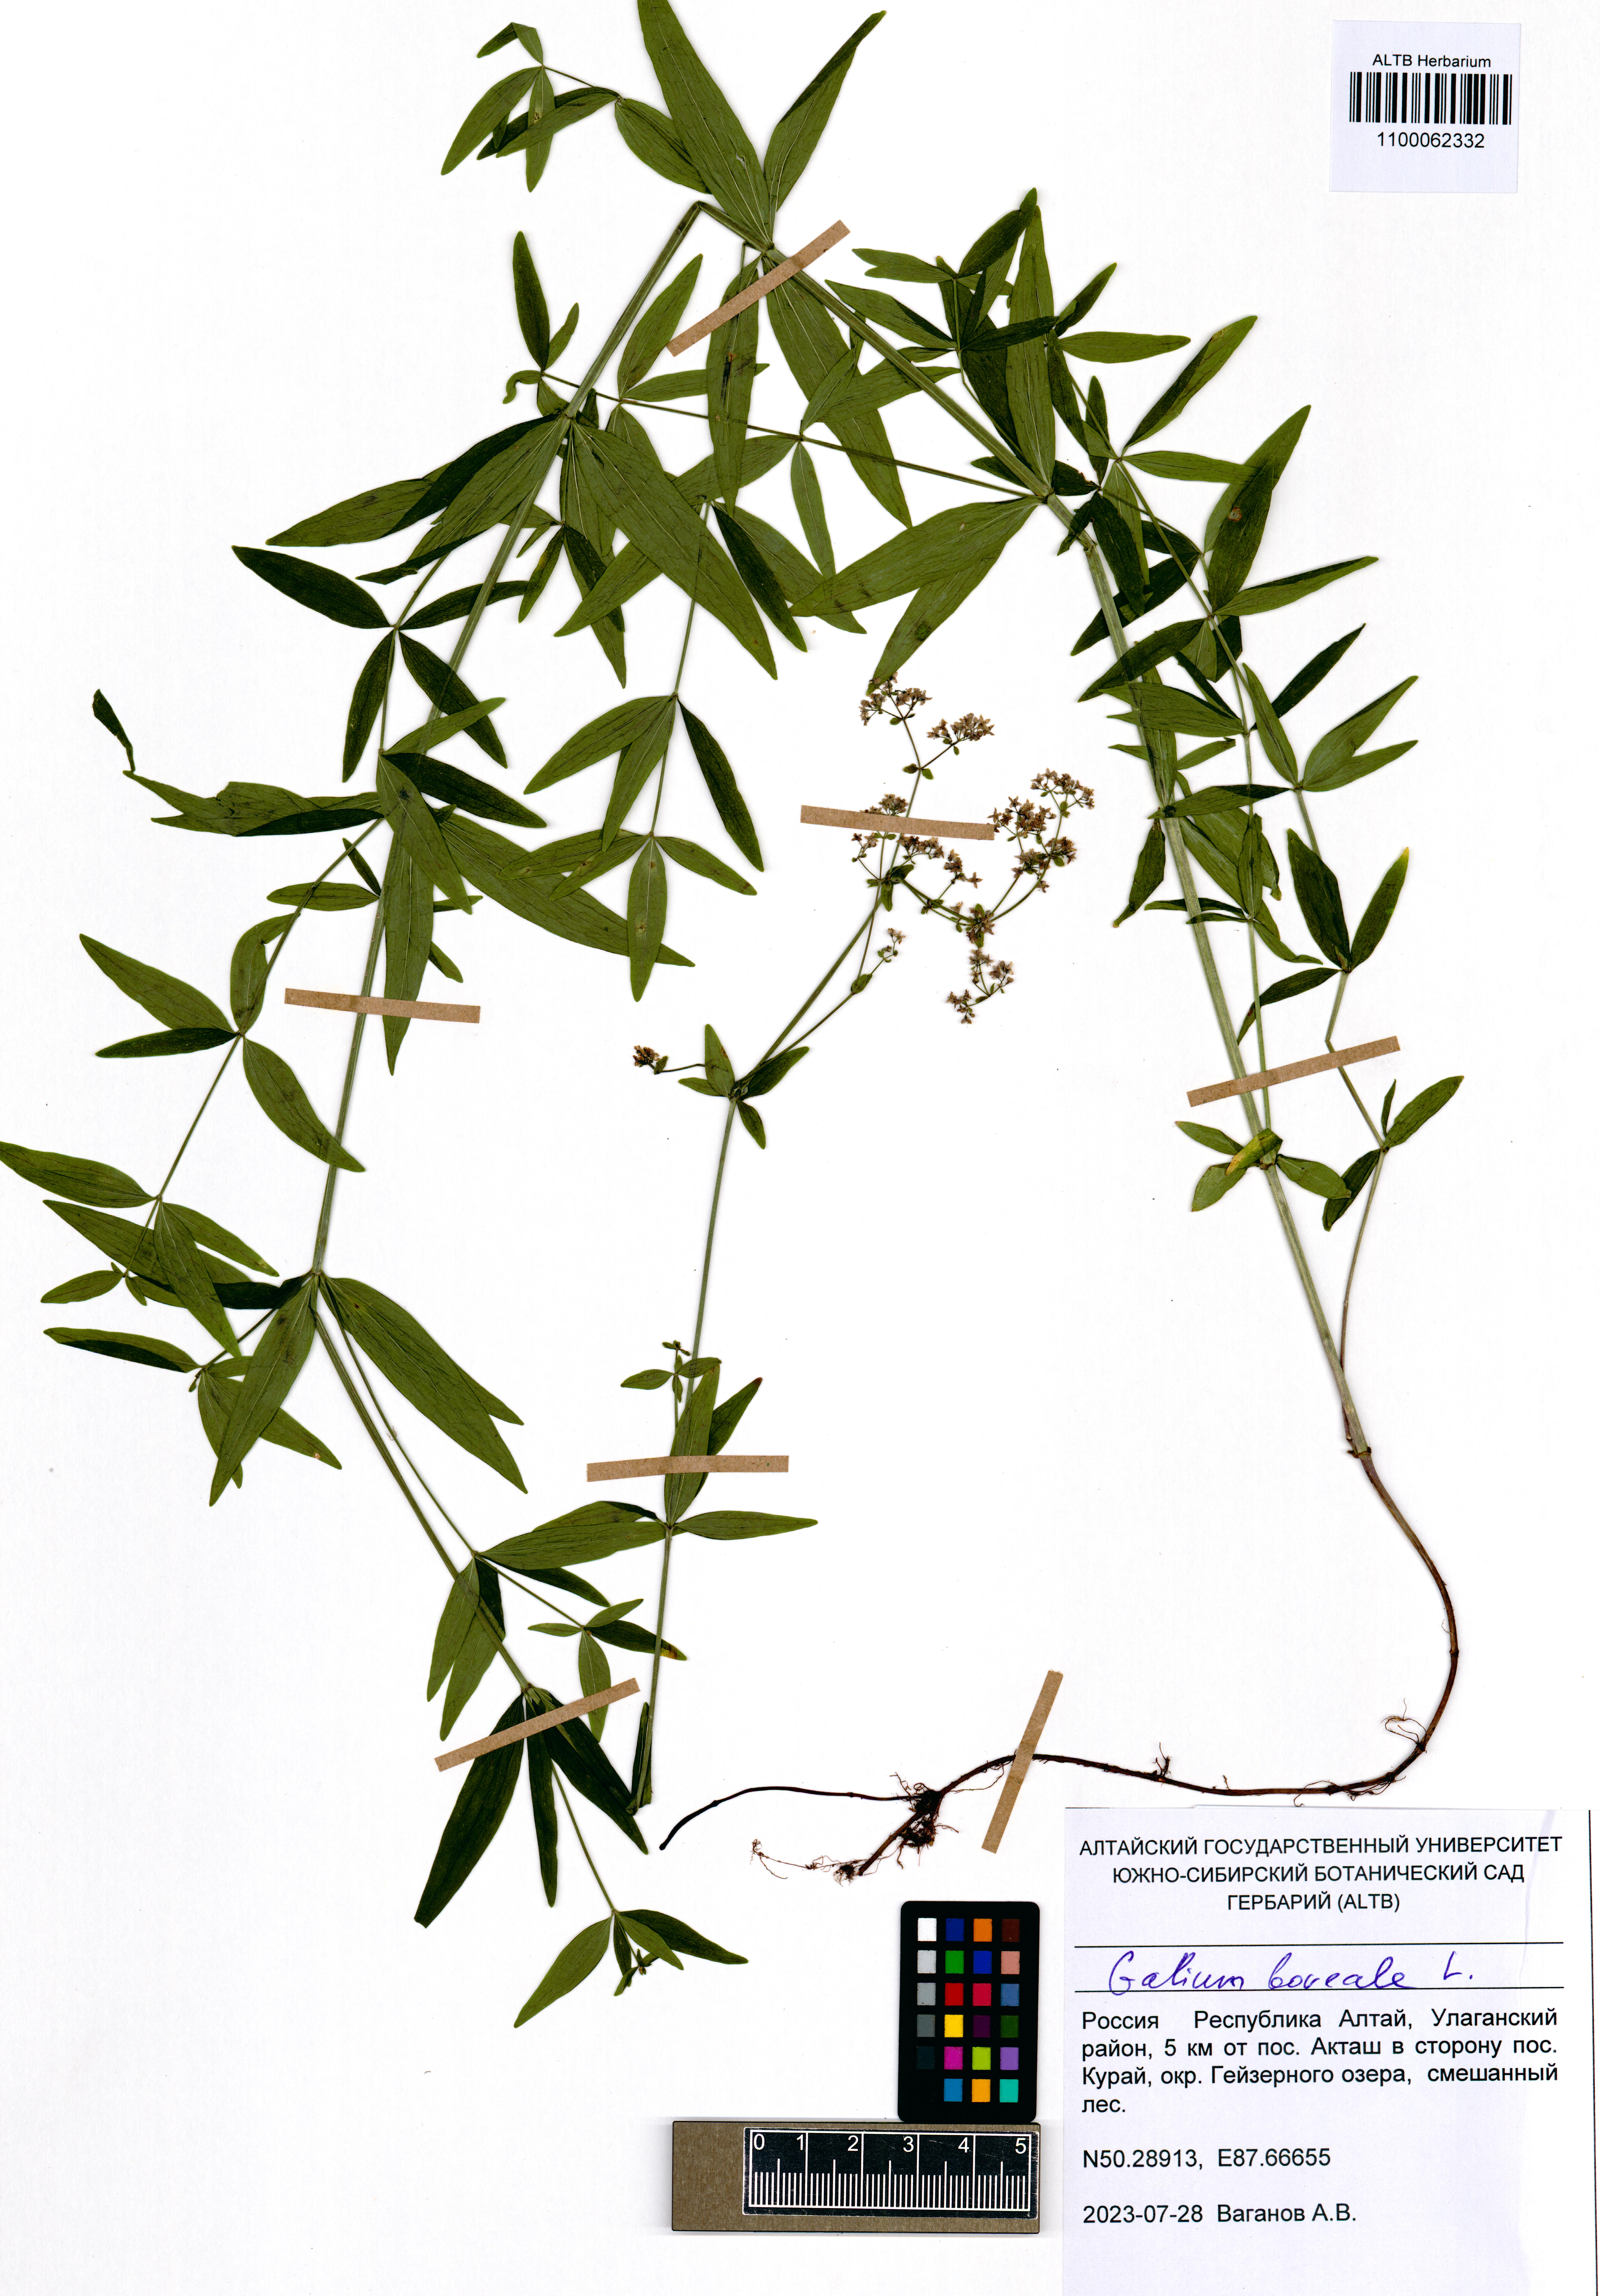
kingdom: Plantae
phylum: Tracheophyta
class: Magnoliopsida
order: Gentianales
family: Rubiaceae
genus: Galium
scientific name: Galium boreale
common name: Northern bedstraw
